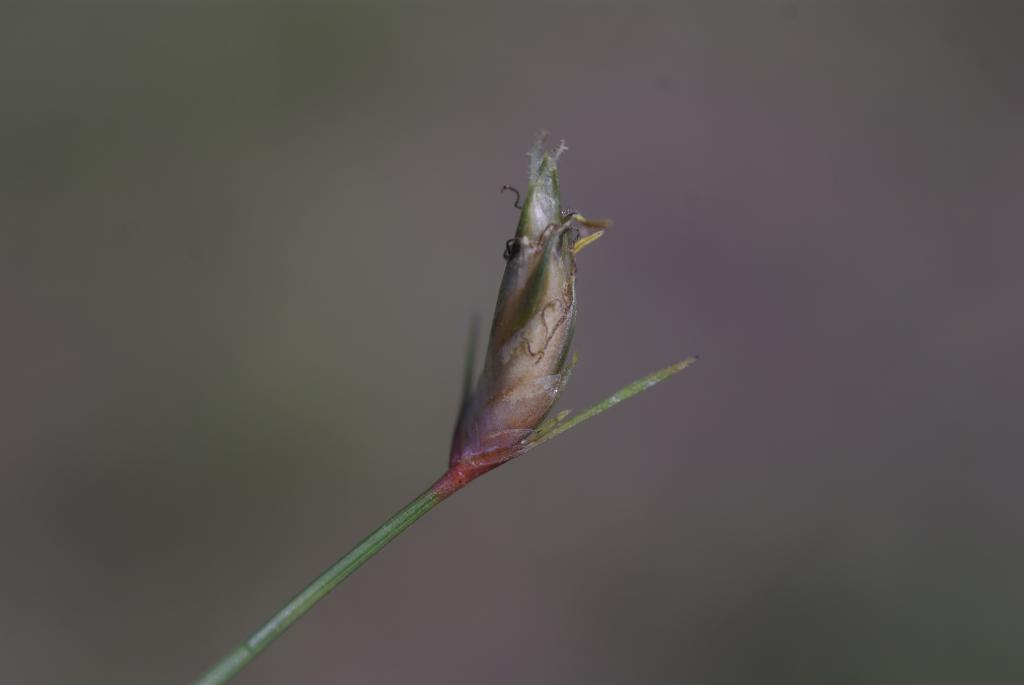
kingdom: Plantae
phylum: Tracheophyta
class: Liliopsida
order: Poales
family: Cyperaceae
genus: Abildgaardia
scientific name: Abildgaardia ovata
